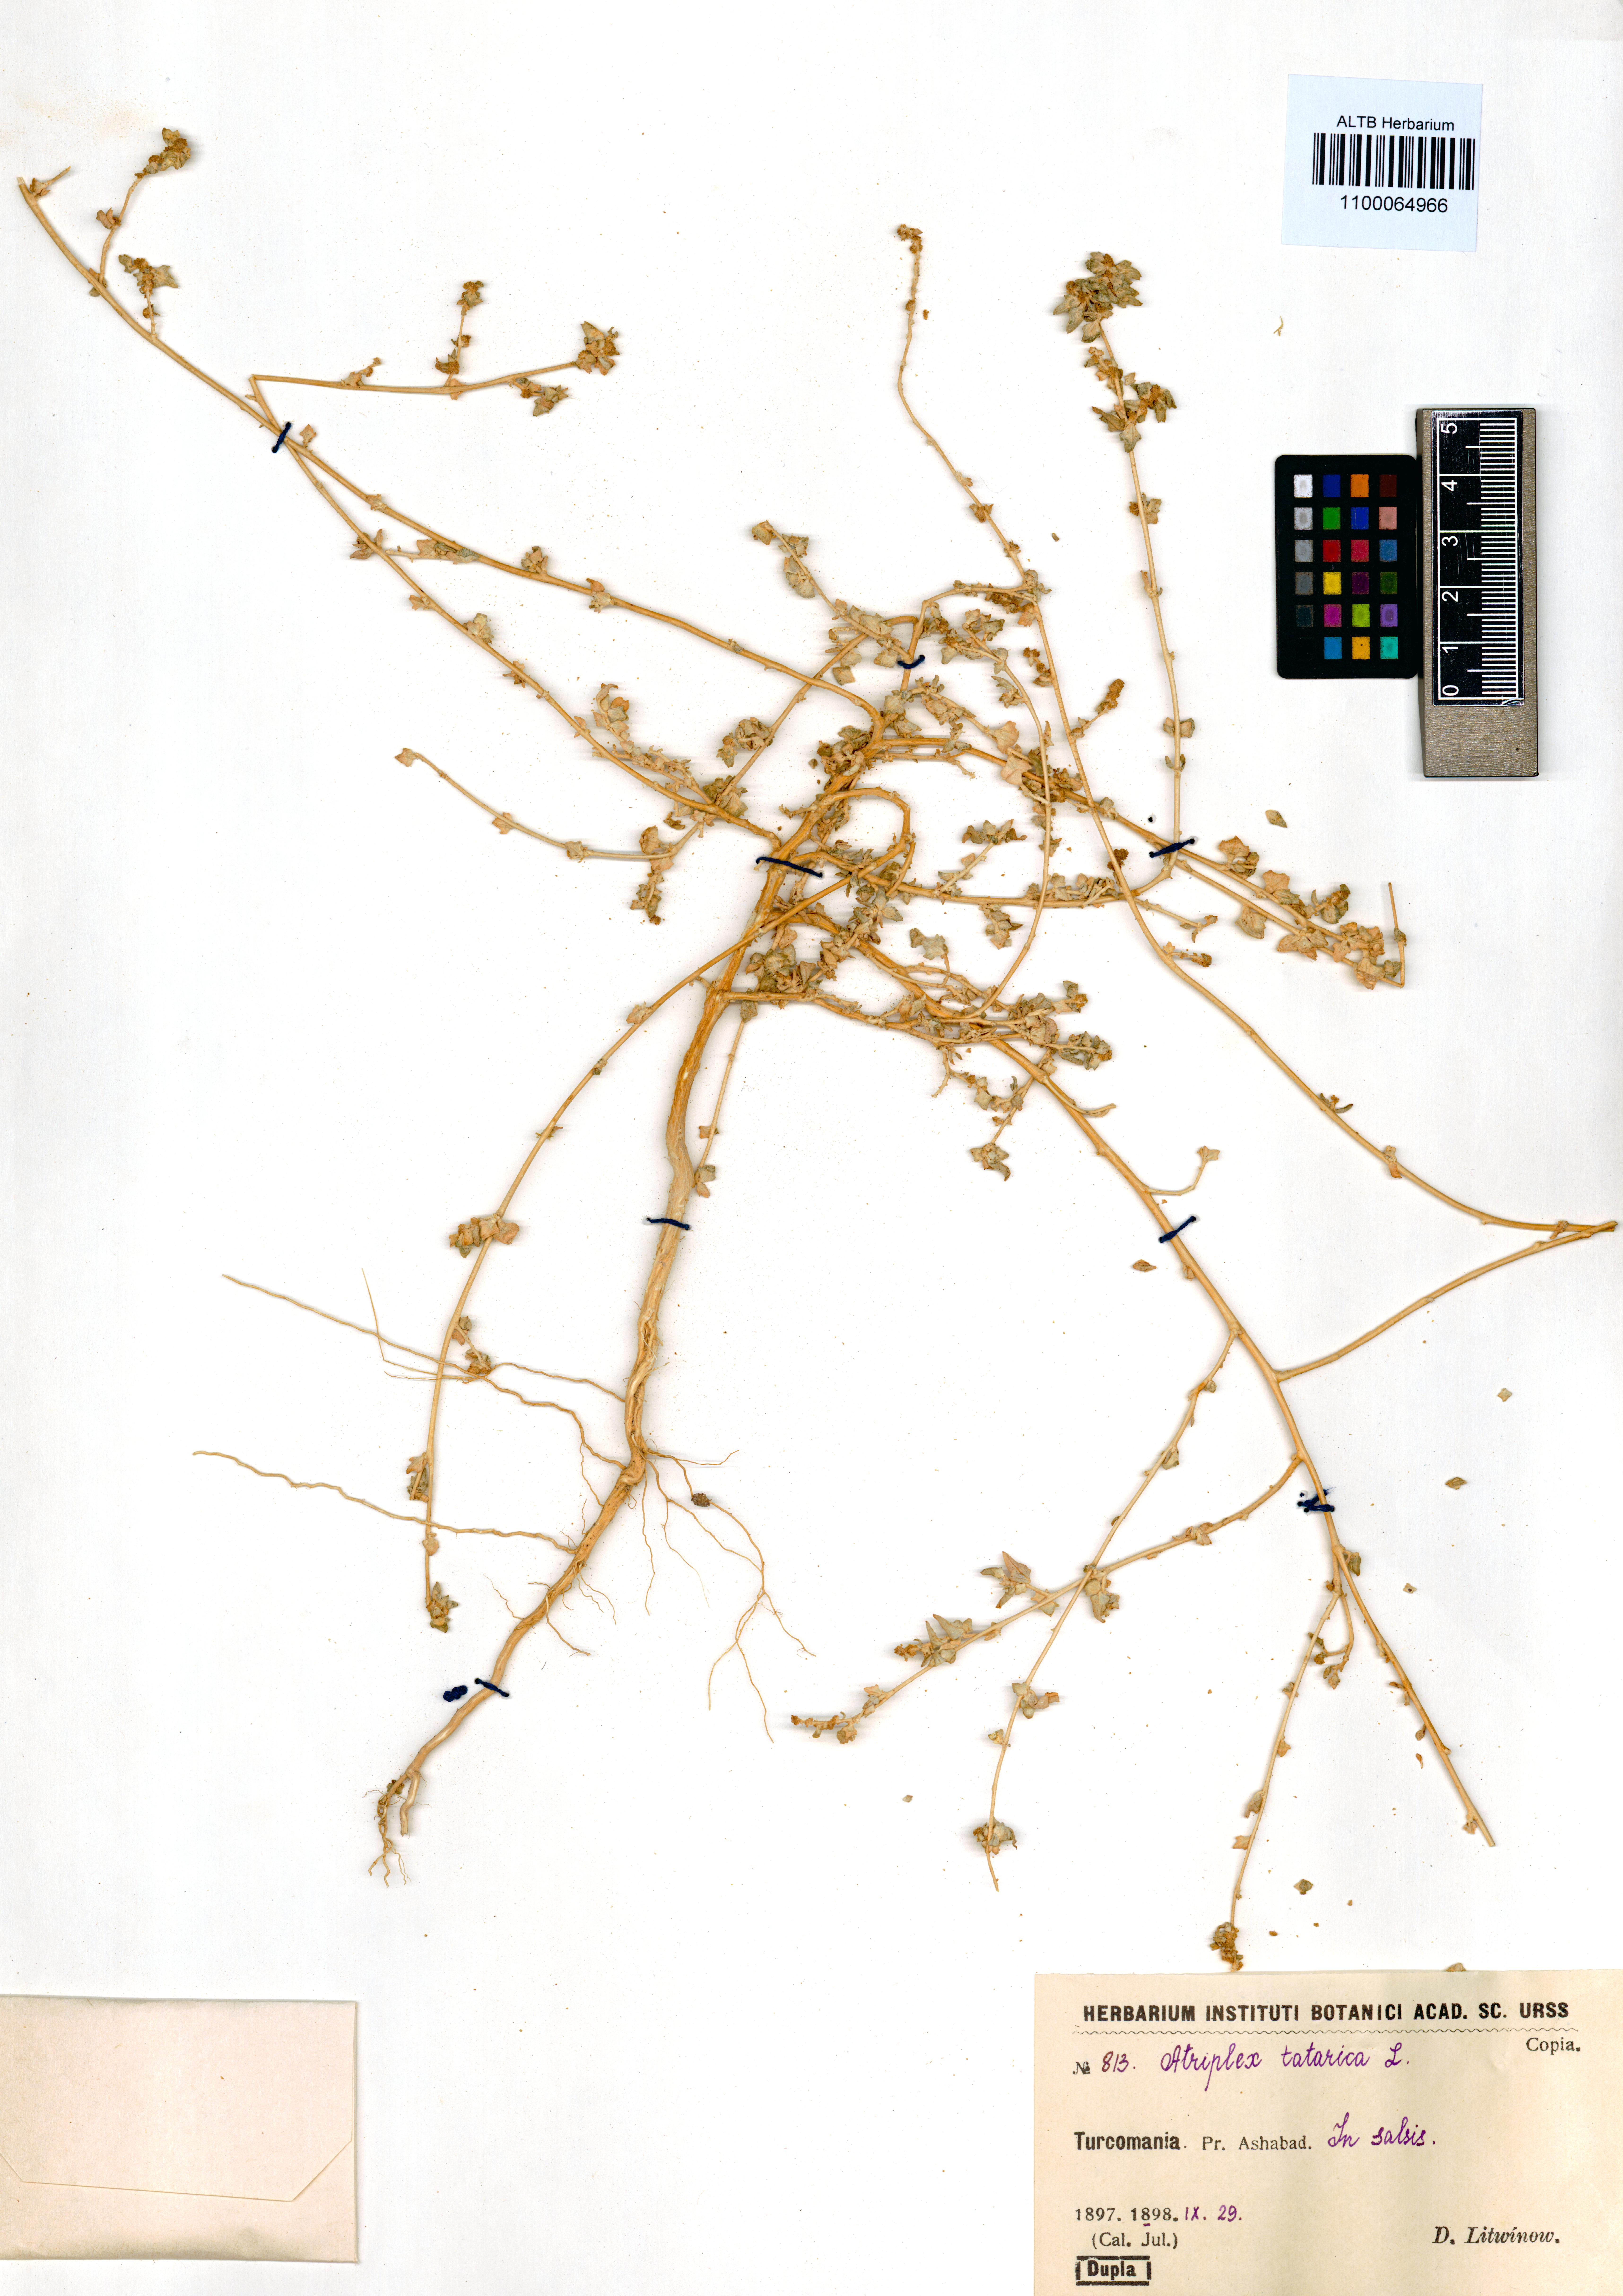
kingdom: Plantae
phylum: Tracheophyta
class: Magnoliopsida
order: Caryophyllales
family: Amaranthaceae
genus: Atriplex
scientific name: Atriplex tatarica
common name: Tatarian orache
